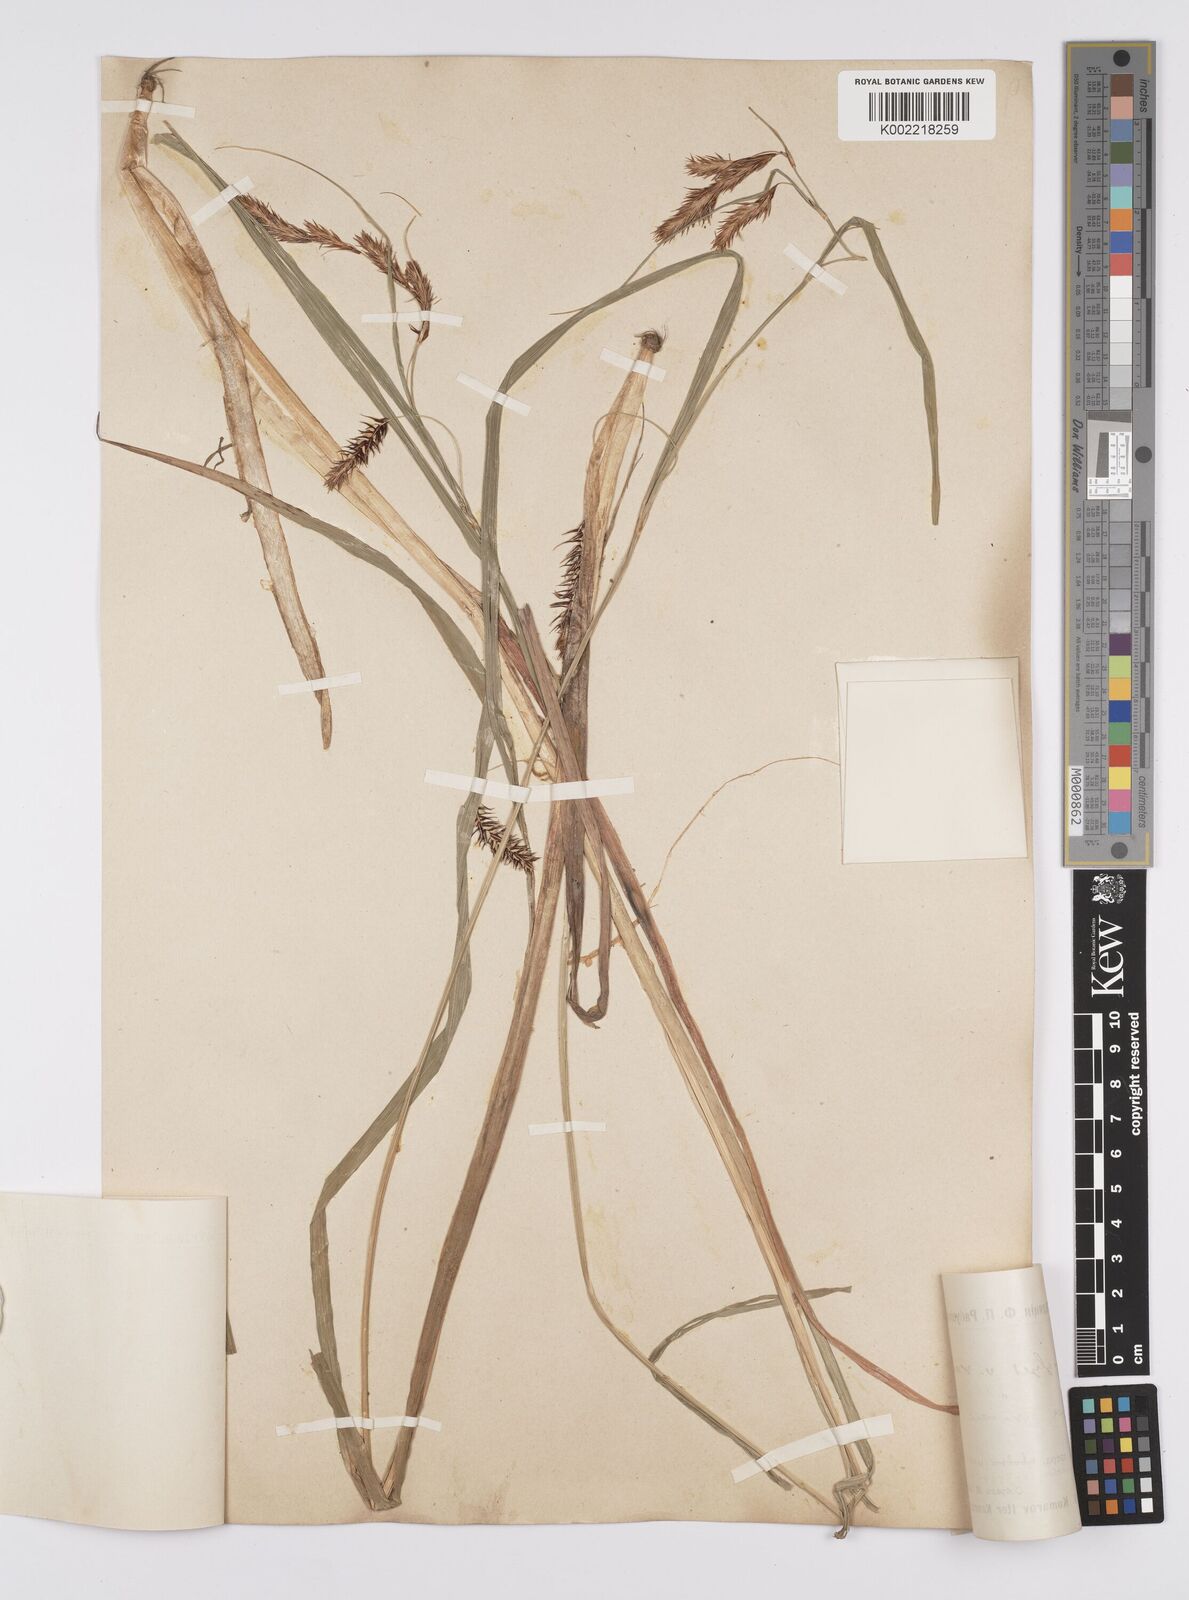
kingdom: Plantae
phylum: Tracheophyta
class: Liliopsida
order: Poales
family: Cyperaceae
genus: Carex
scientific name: Carex lyngbyei
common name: Lyngbye's sedge
